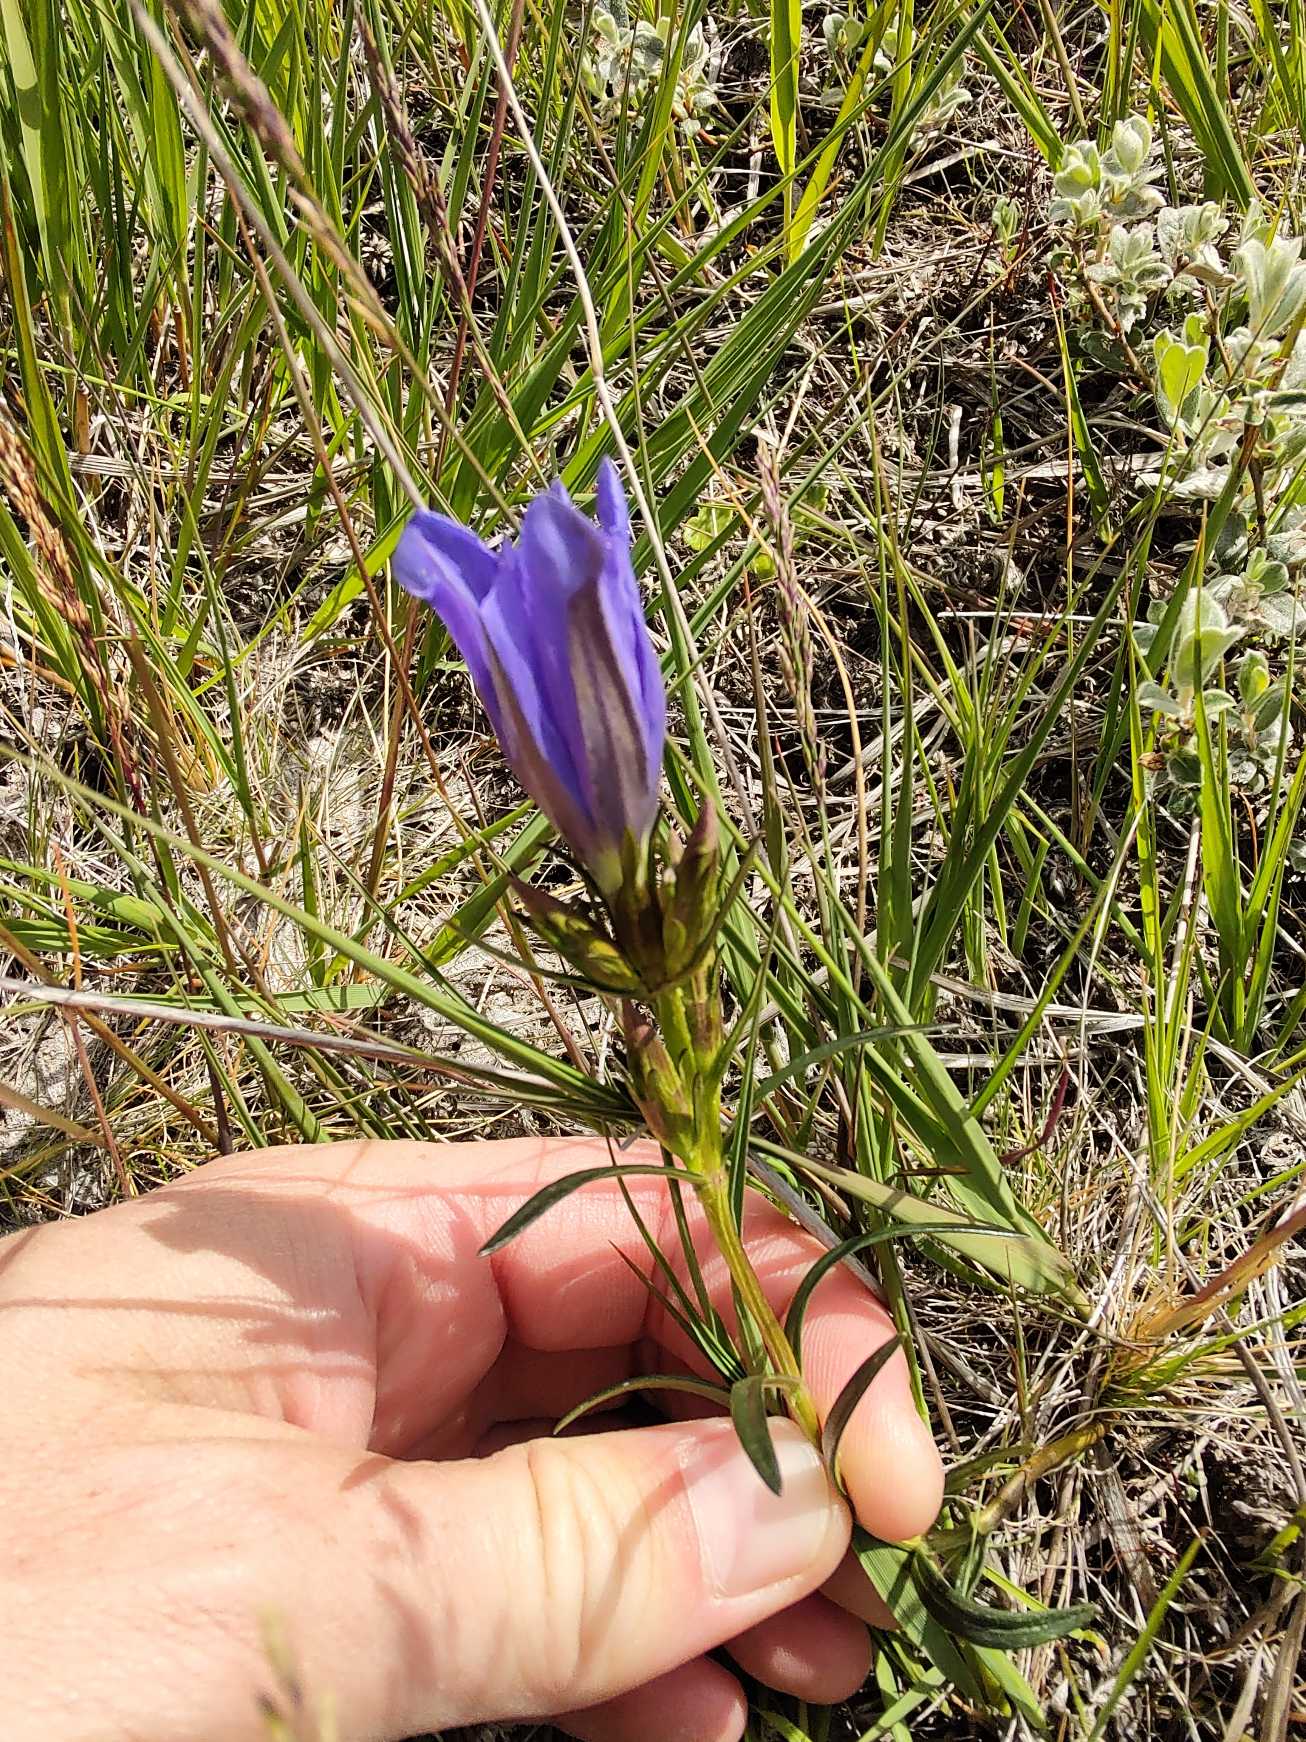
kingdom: Plantae
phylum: Tracheophyta
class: Magnoliopsida
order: Gentianales
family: Gentianaceae
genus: Gentiana
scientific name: Gentiana pneumonanthe
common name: Klokke-ensian
